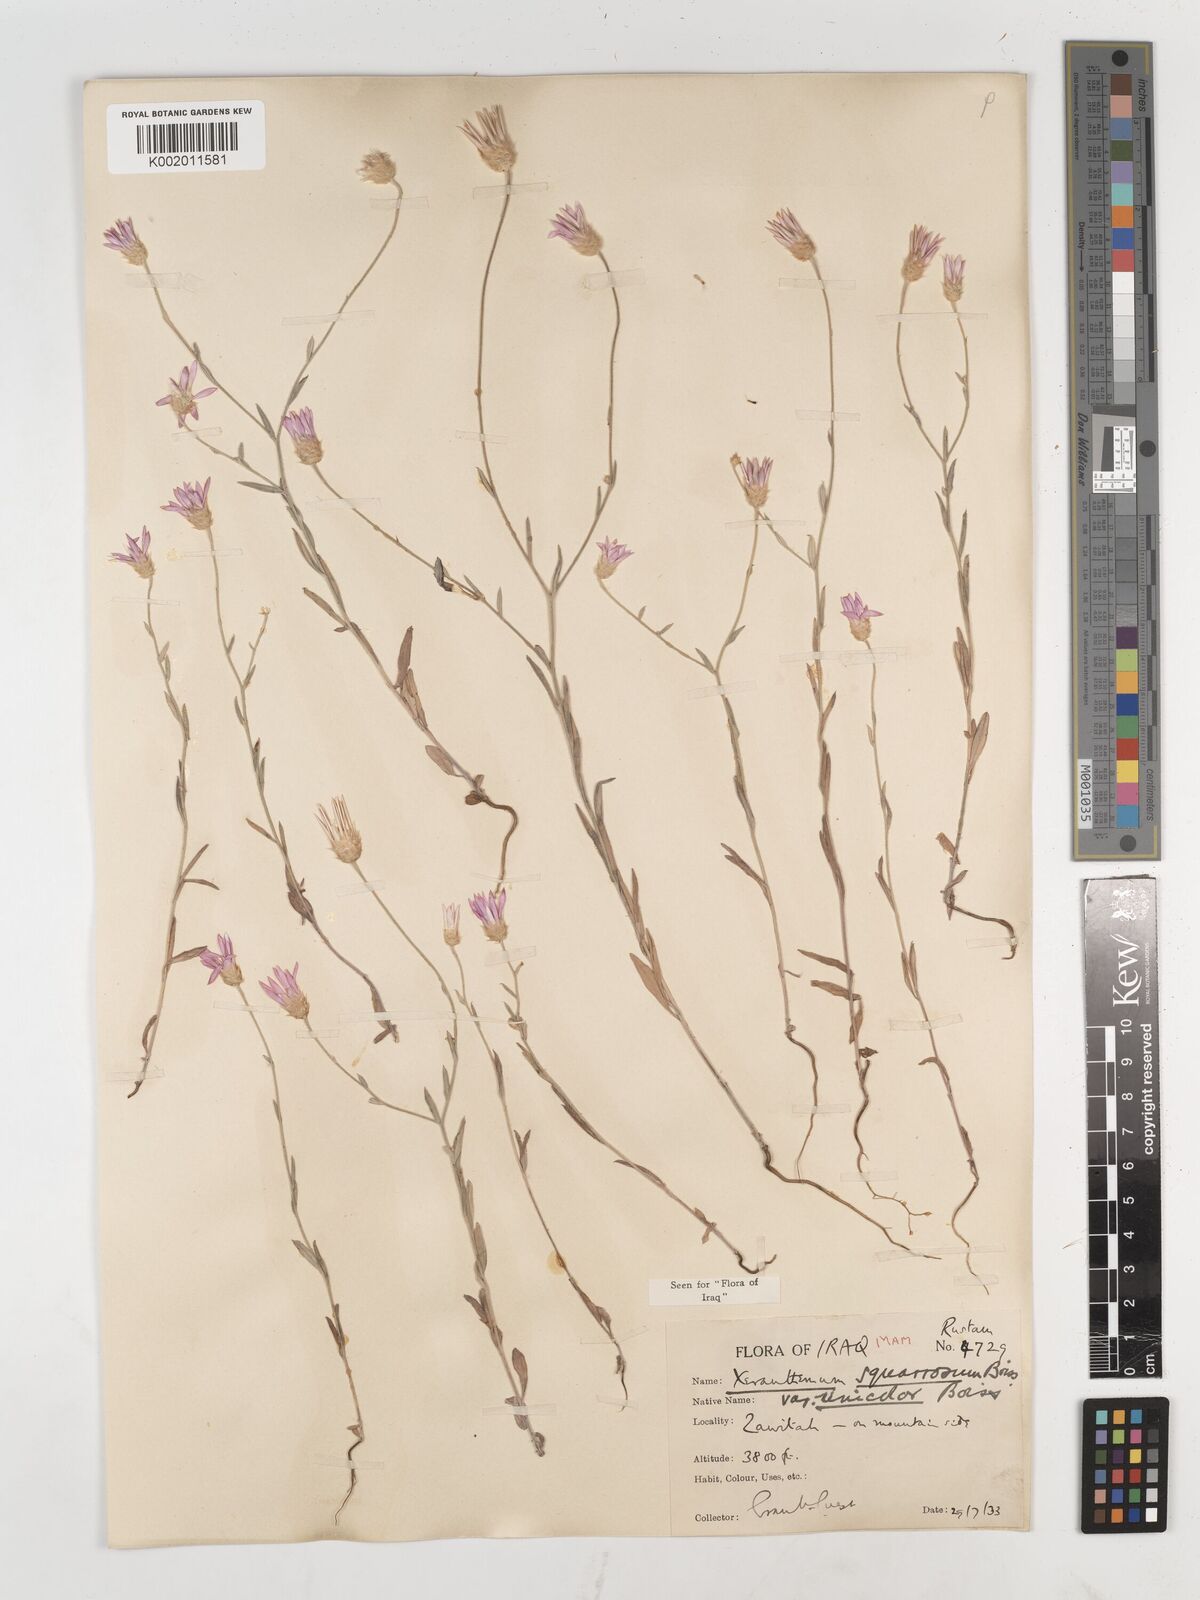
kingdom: Plantae
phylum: Tracheophyta
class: Magnoliopsida
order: Asterales
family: Asteraceae
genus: Xeranthemum
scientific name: Xeranthemum annuum
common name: Immortelle
